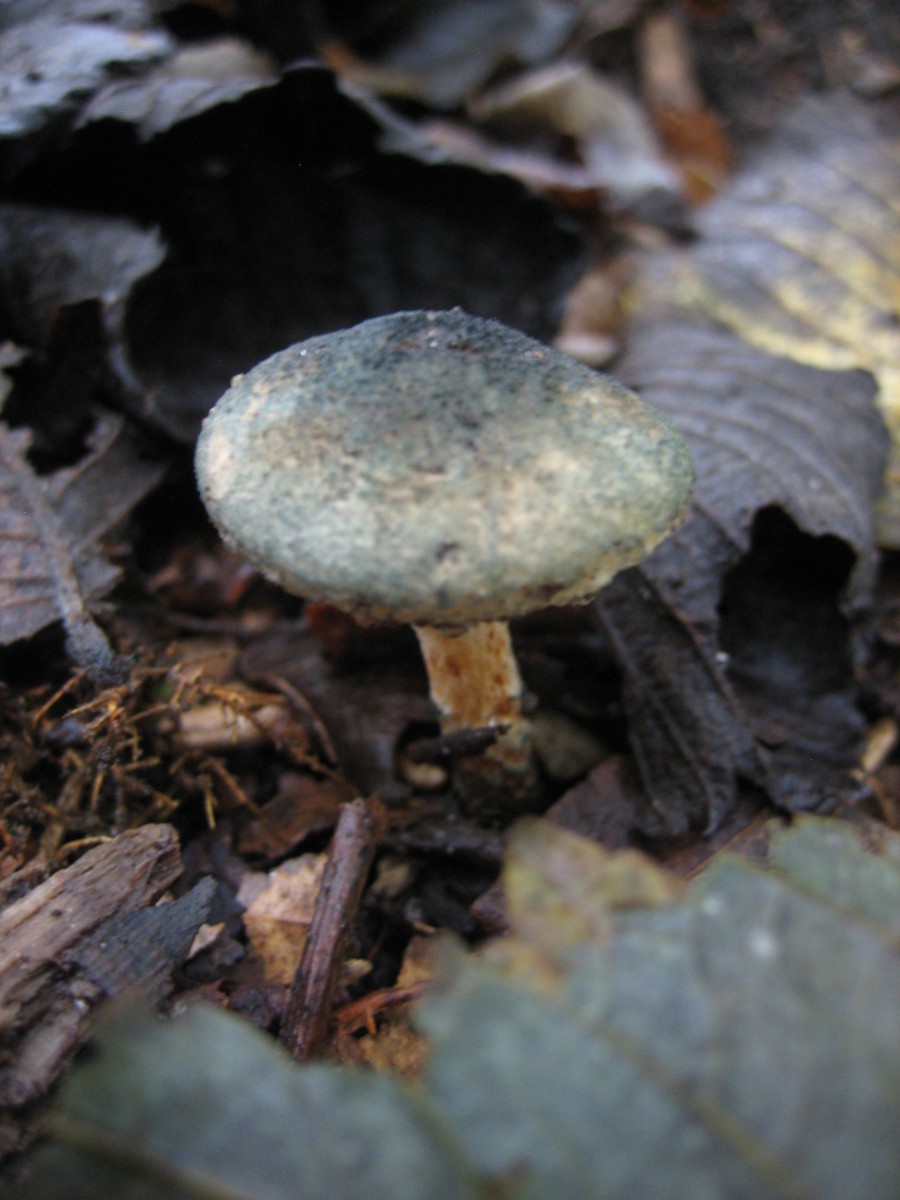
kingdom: Fungi
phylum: Basidiomycota
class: Agaricomycetes
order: Agaricales
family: Agaricaceae
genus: Lepiota
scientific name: Lepiota grangei
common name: grønskællet parasolhat
